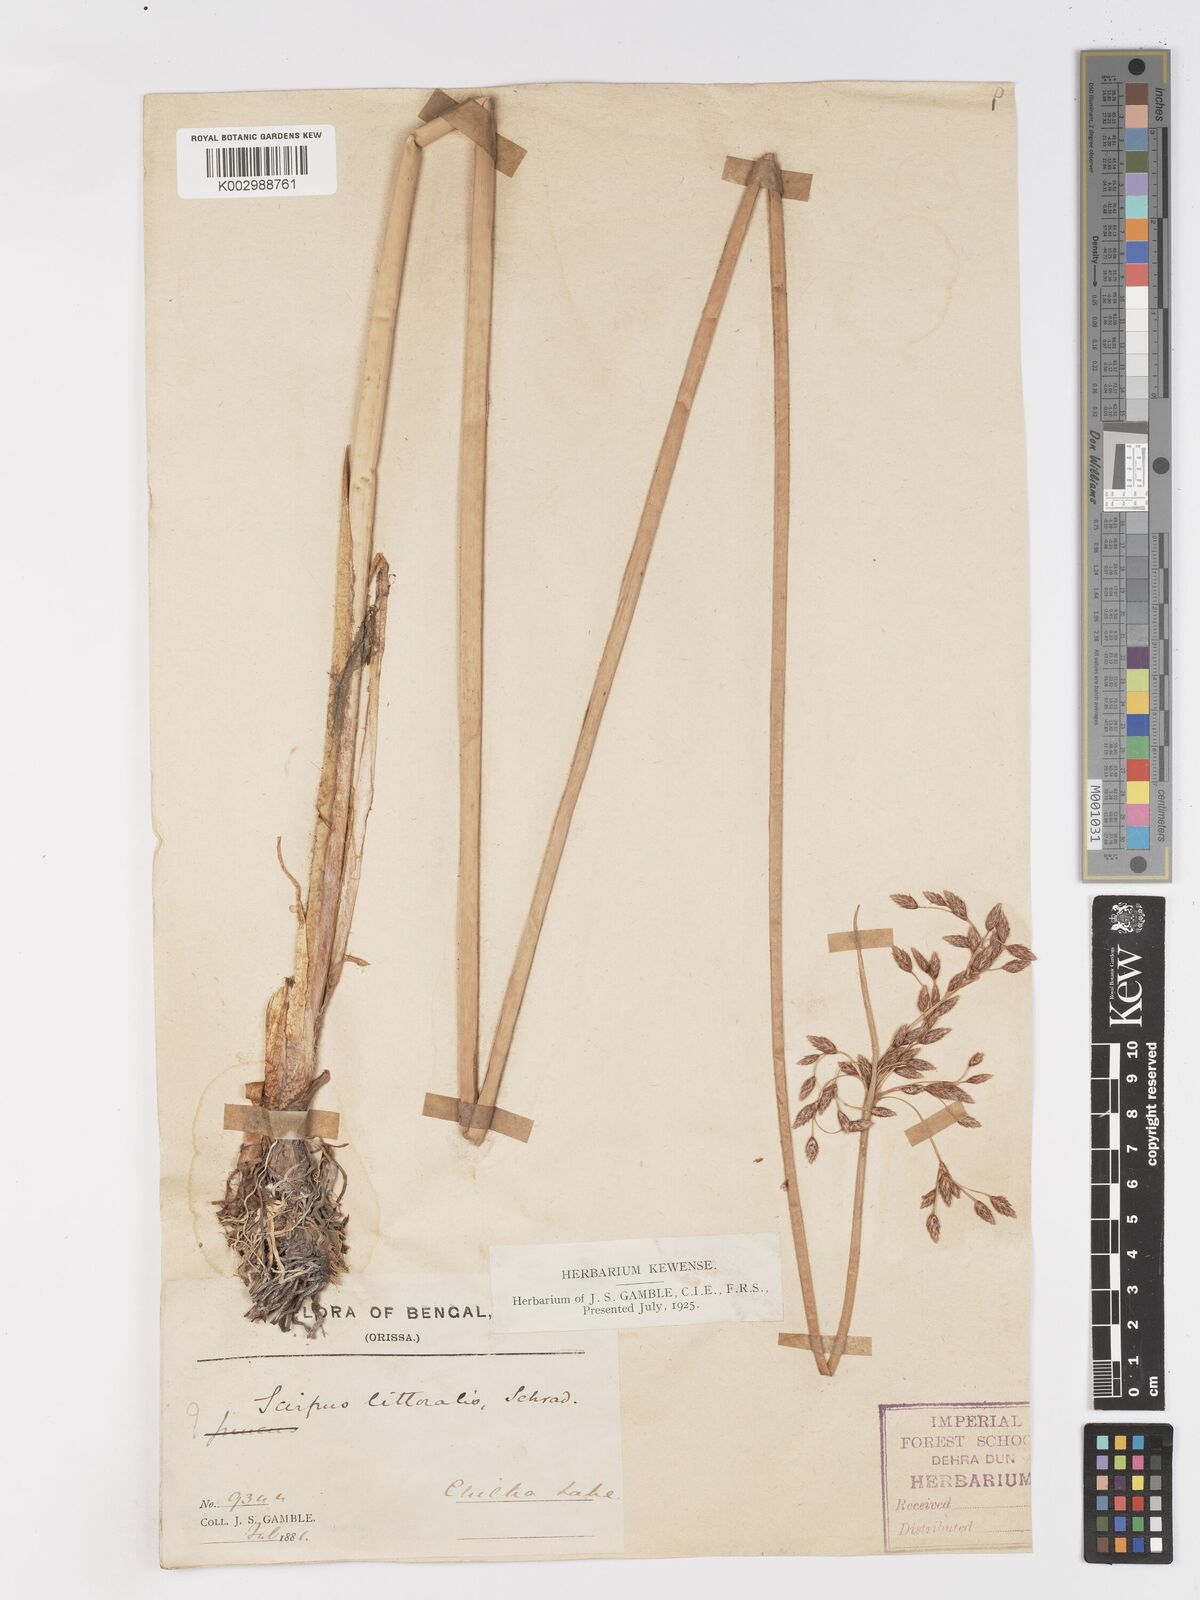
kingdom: Plantae
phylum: Tracheophyta
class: Liliopsida
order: Poales
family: Cyperaceae
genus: Schoenoplectus
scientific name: Schoenoplectus litoralis
